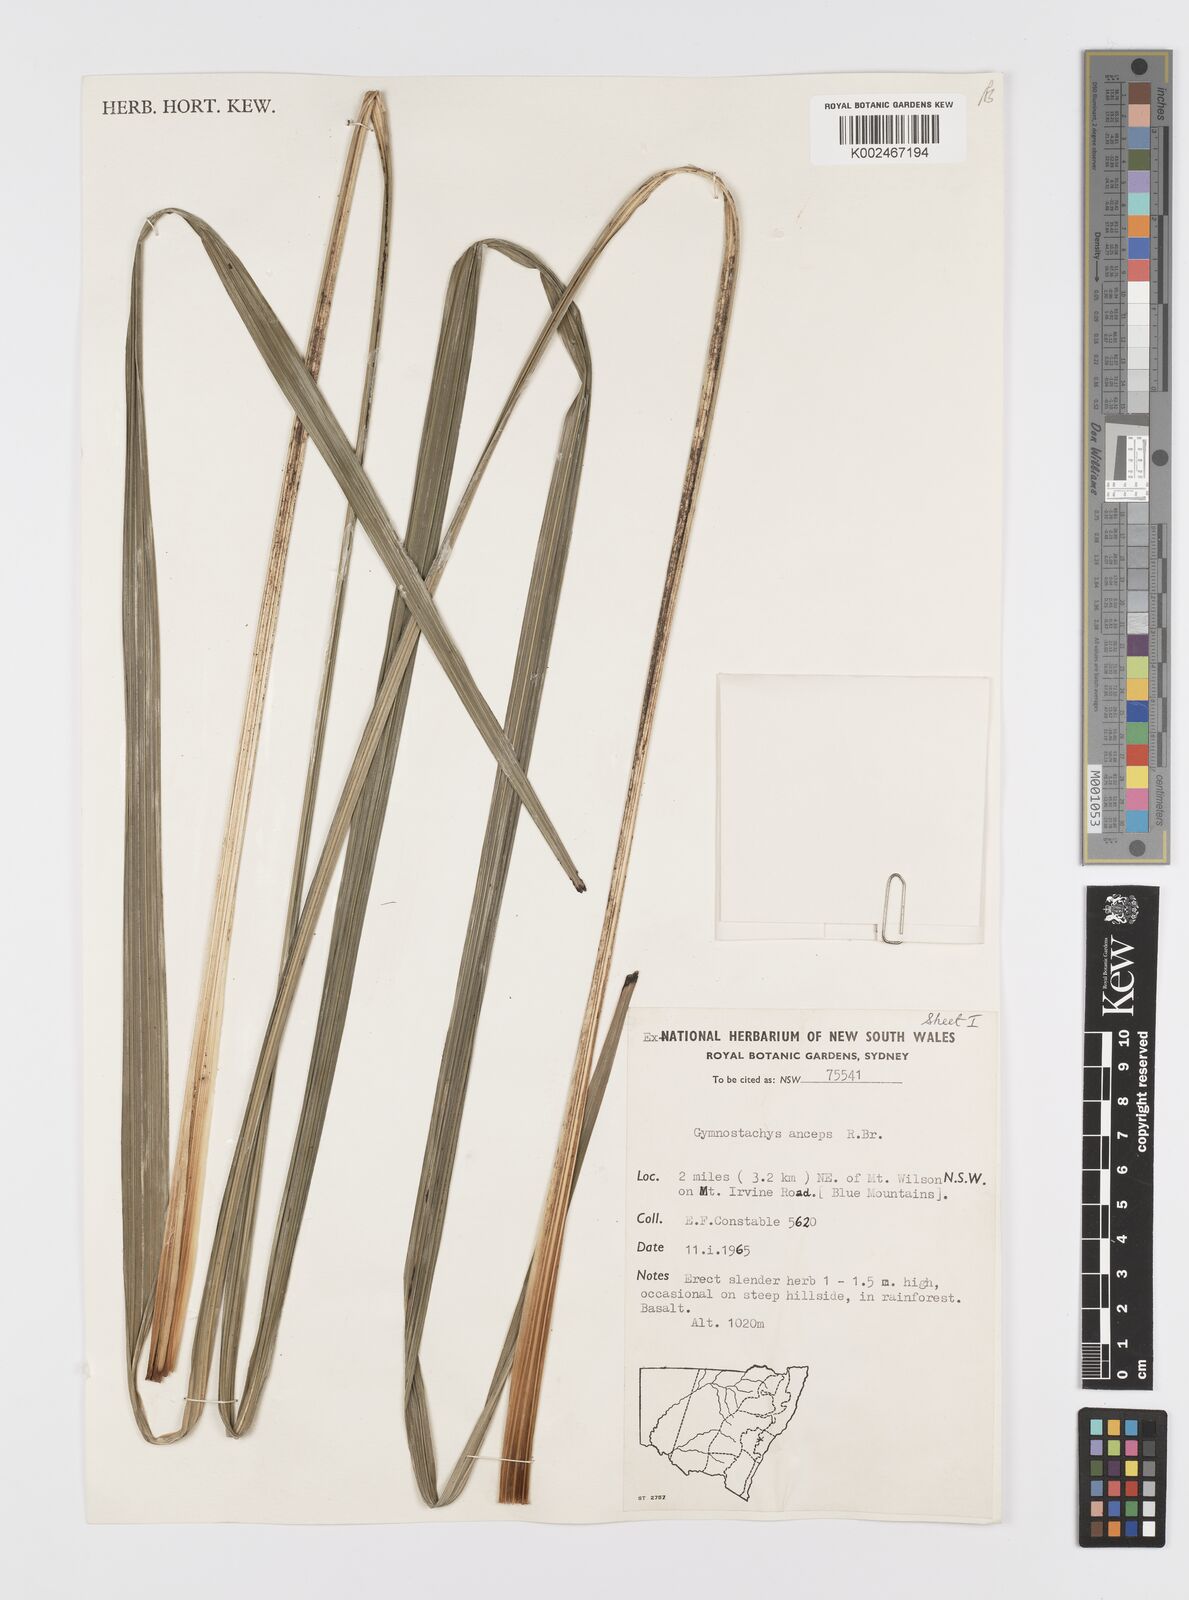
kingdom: Plantae
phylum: Tracheophyta
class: Liliopsida
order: Alismatales
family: Araceae
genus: Gymnostachys
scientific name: Gymnostachys anceps
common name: Settler's-flax
